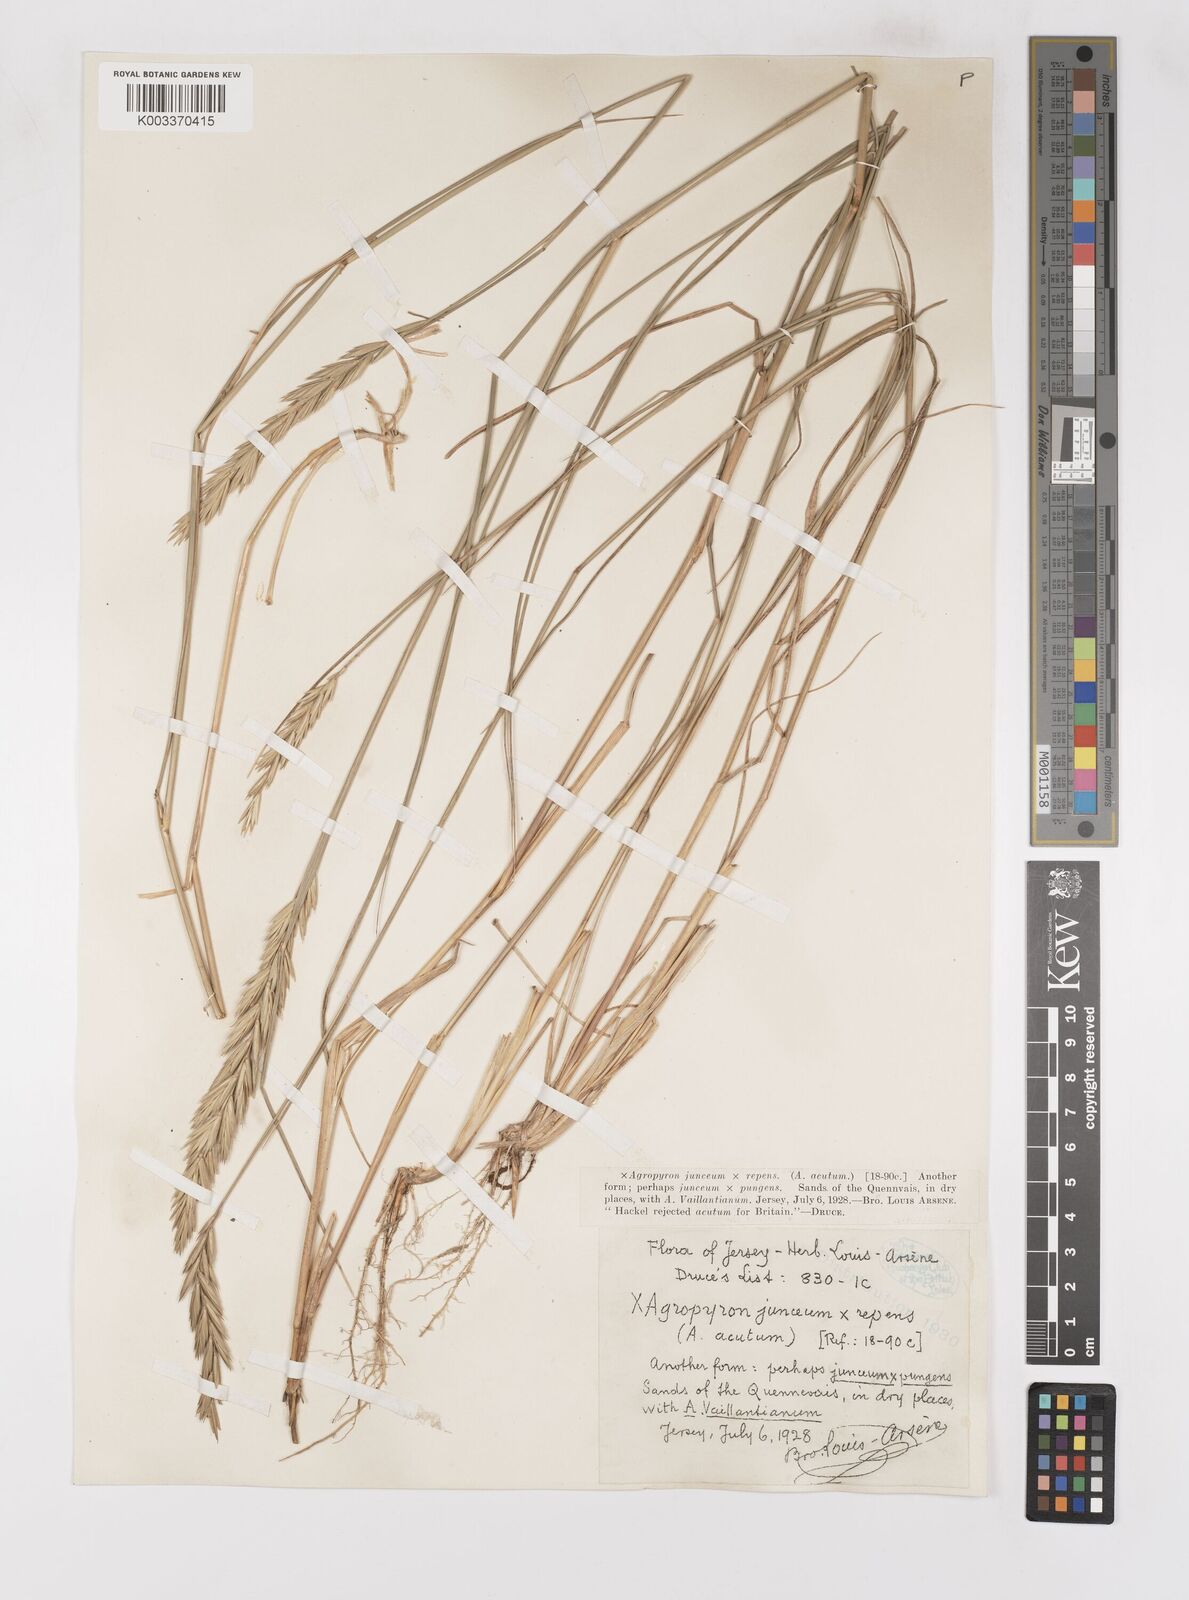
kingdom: Plantae
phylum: Tracheophyta
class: Liliopsida
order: Poales
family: Poaceae
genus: Elymus
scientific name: Elymus oliveri
